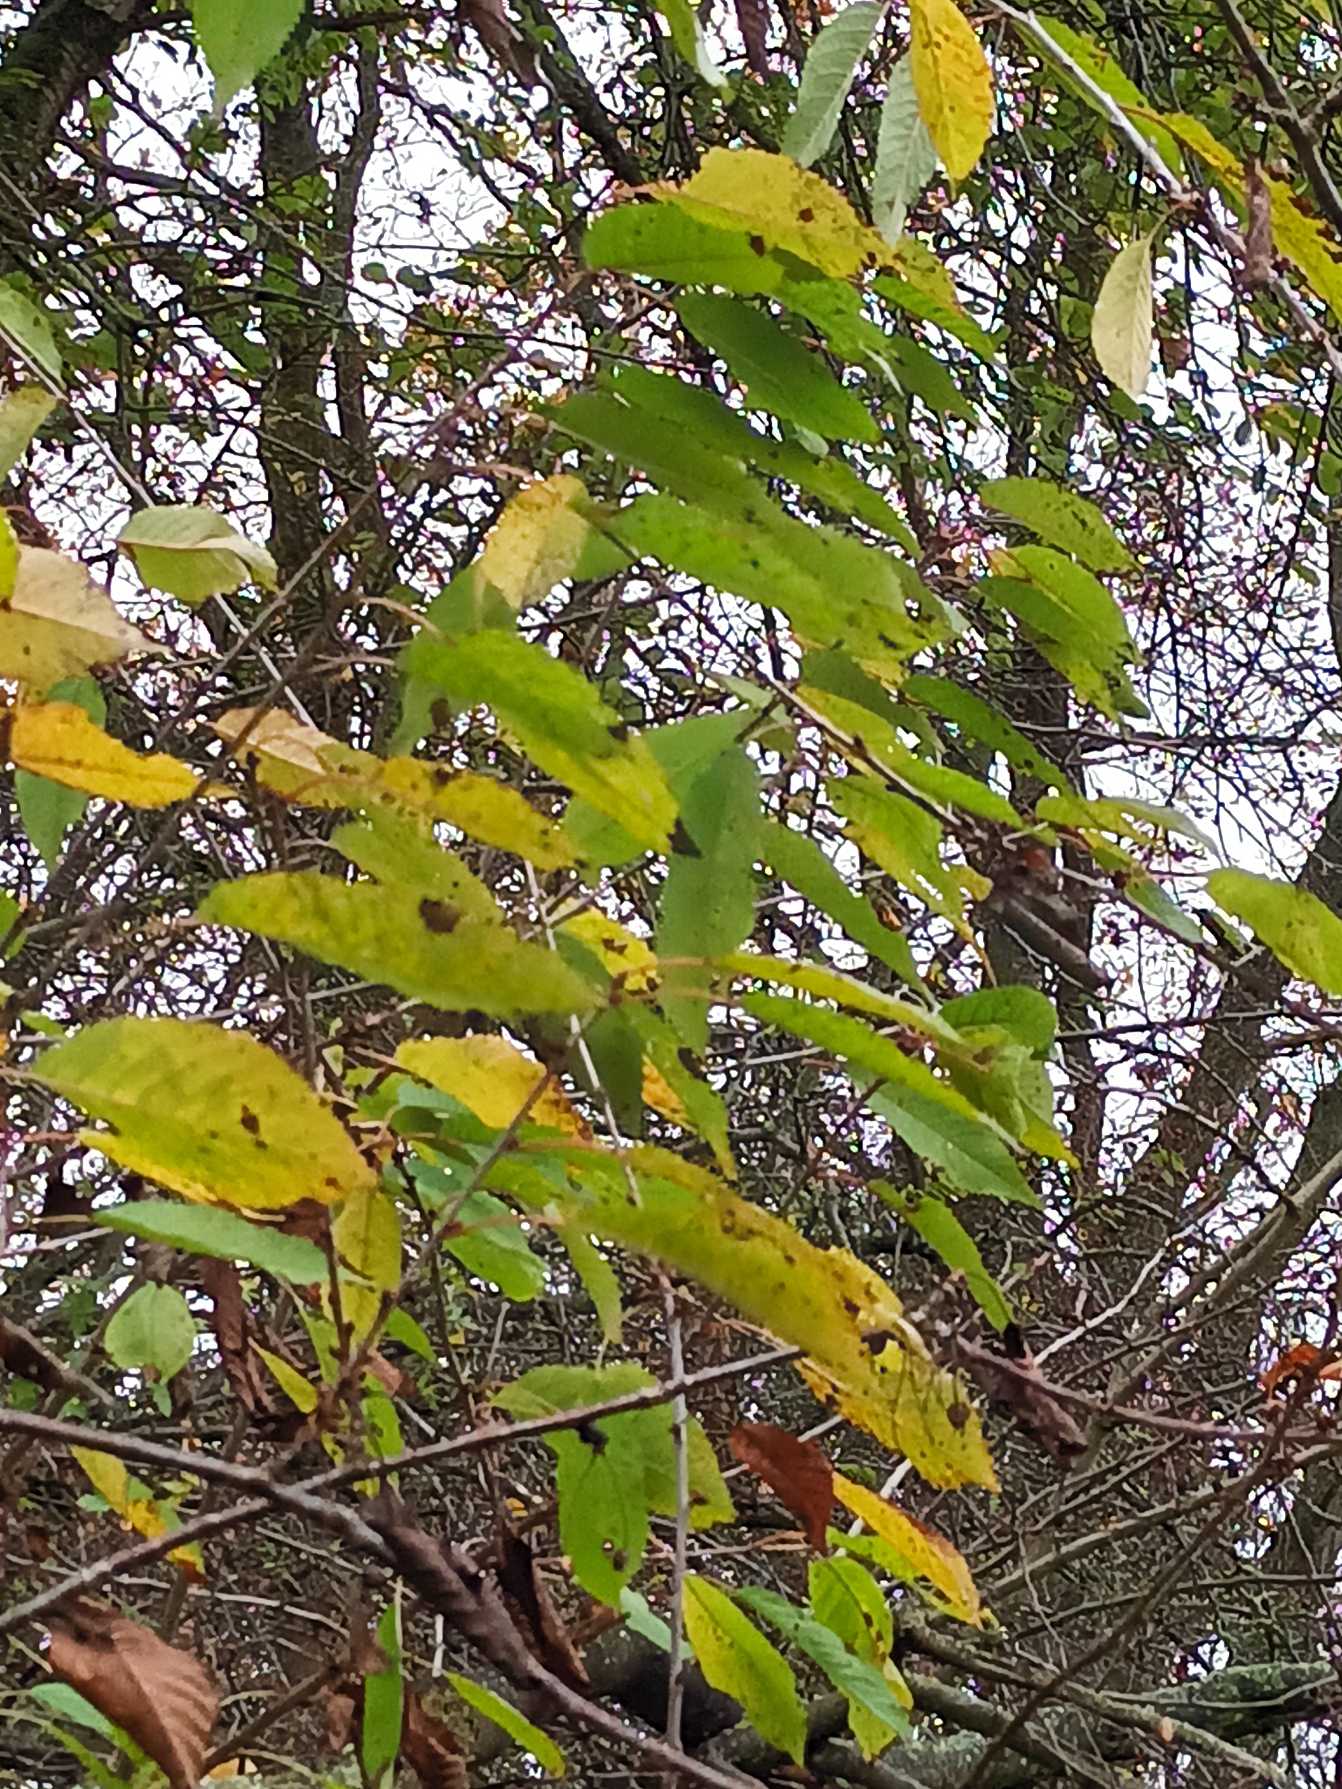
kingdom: Plantae
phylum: Tracheophyta
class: Magnoliopsida
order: Rosales
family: Rosaceae
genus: Prunus
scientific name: Prunus avium
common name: Fugle-kirsebær
